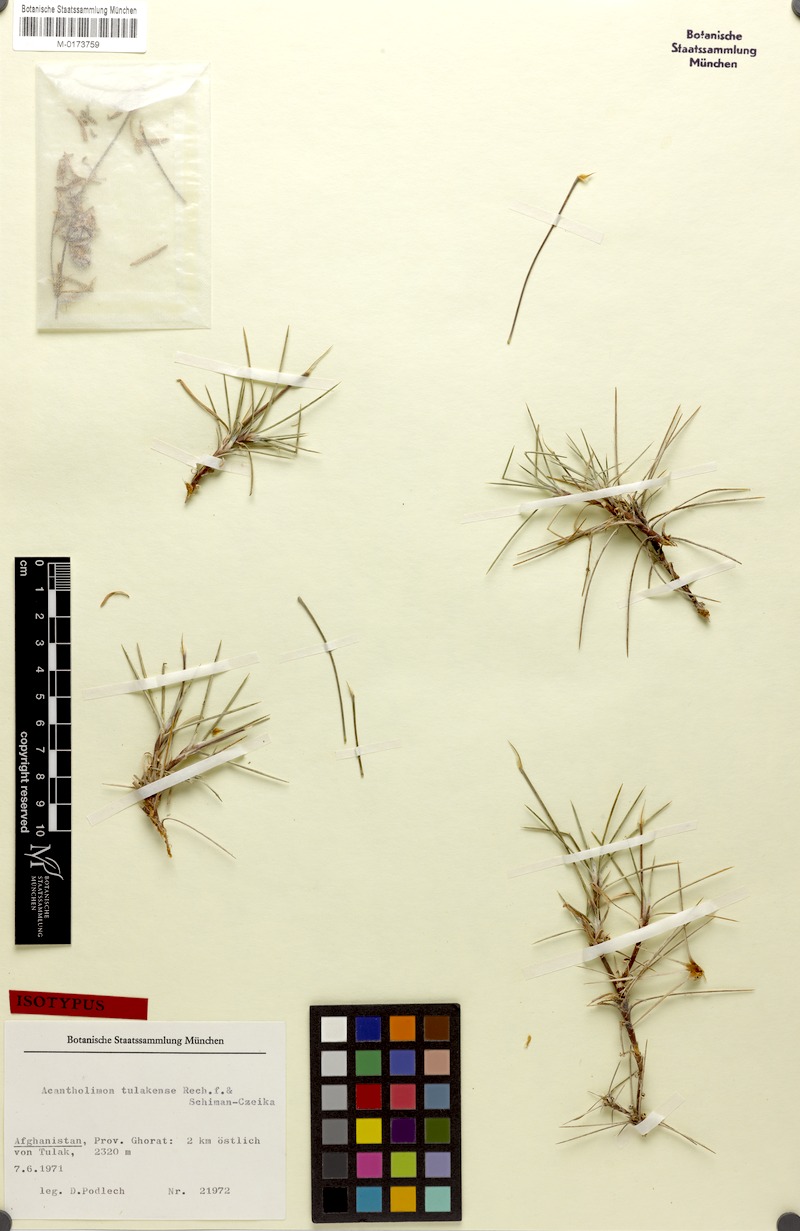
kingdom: Plantae
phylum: Tracheophyta
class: Magnoliopsida
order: Caryophyllales
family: Plumbaginaceae
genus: Acantholimon
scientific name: Acantholimon tulakense
